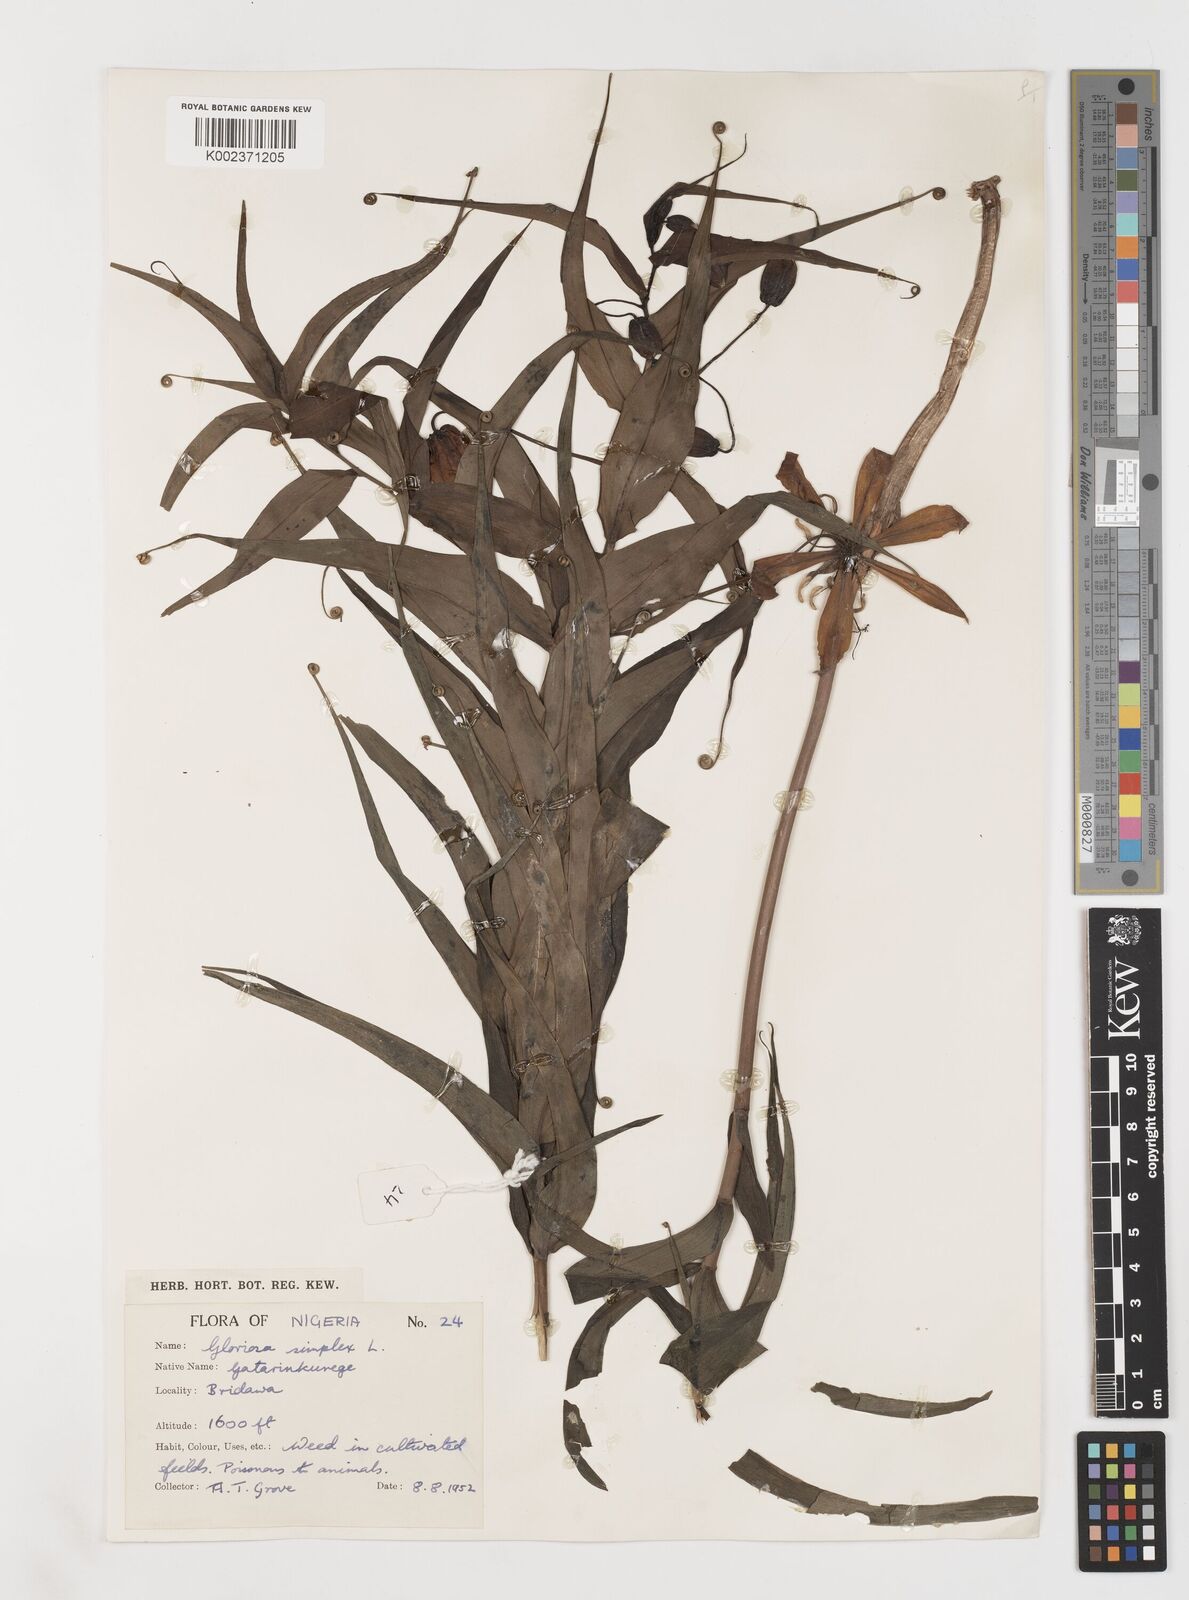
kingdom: Plantae
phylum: Tracheophyta
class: Liliopsida
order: Liliales
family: Colchicaceae
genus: Gloriosa
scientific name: Gloriosa simplex
